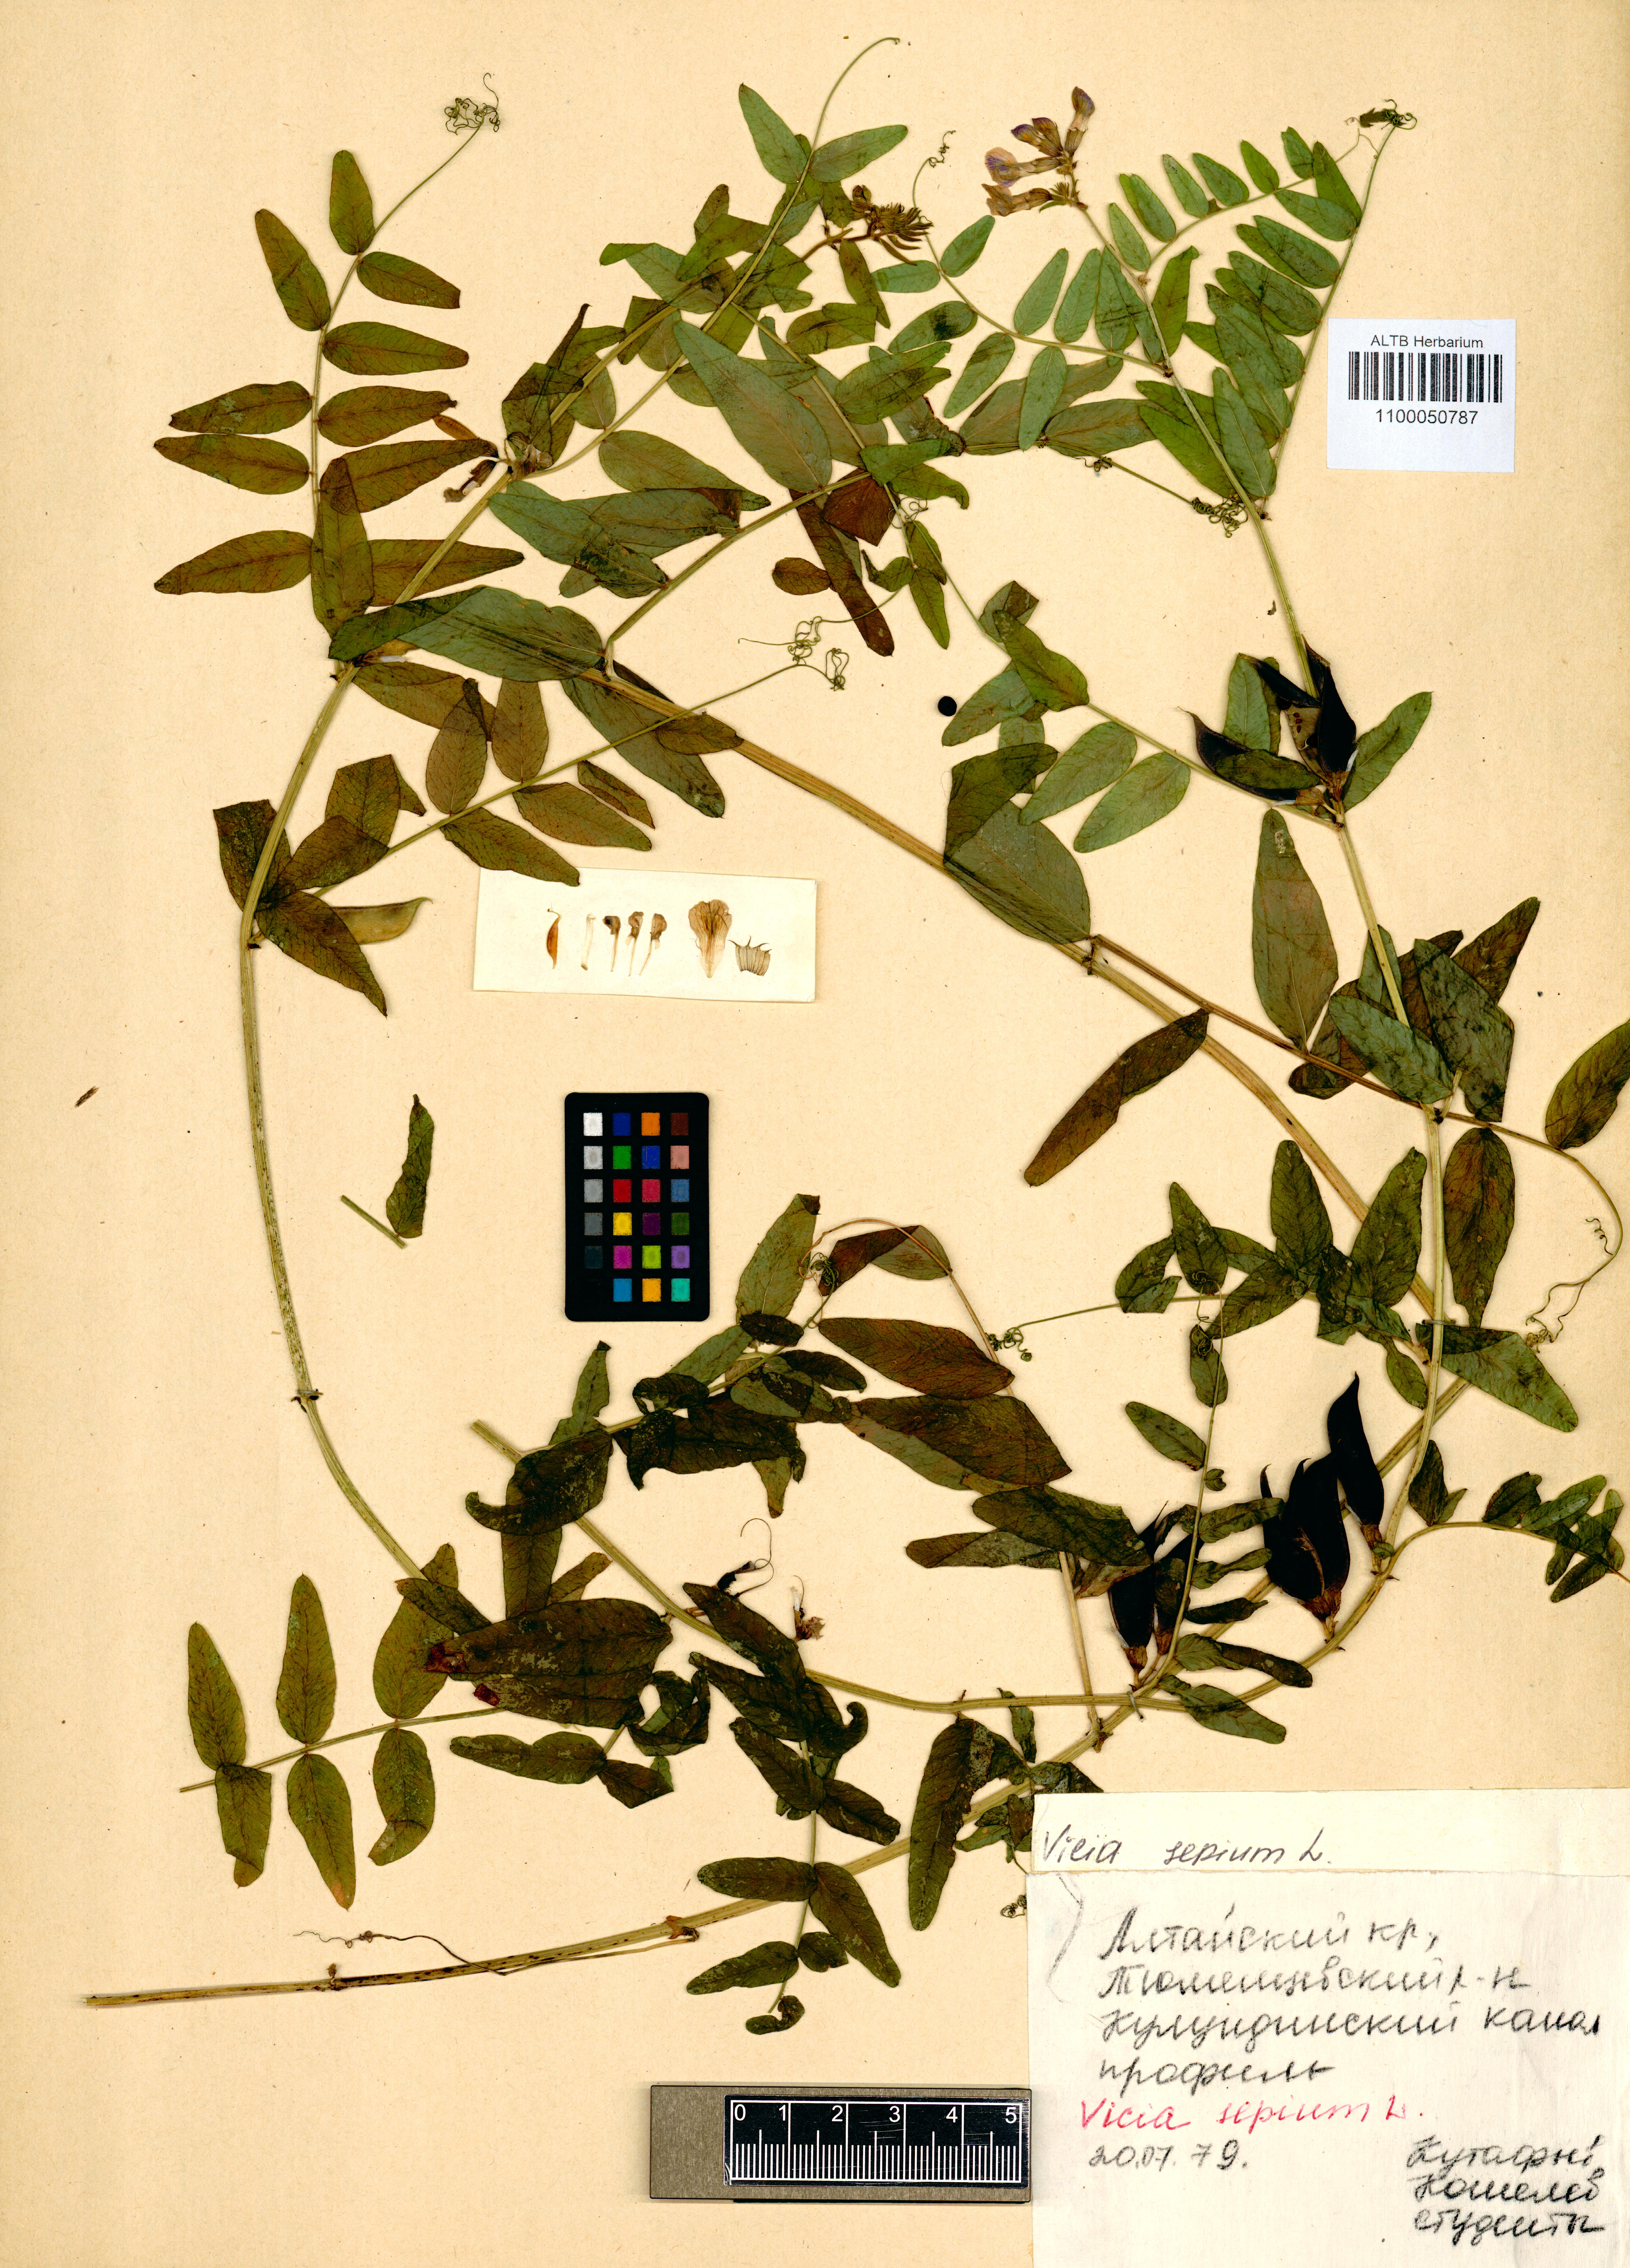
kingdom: Plantae
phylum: Tracheophyta
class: Magnoliopsida
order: Fabales
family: Fabaceae
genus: Vicia
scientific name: Vicia sepium
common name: Bush vetch
